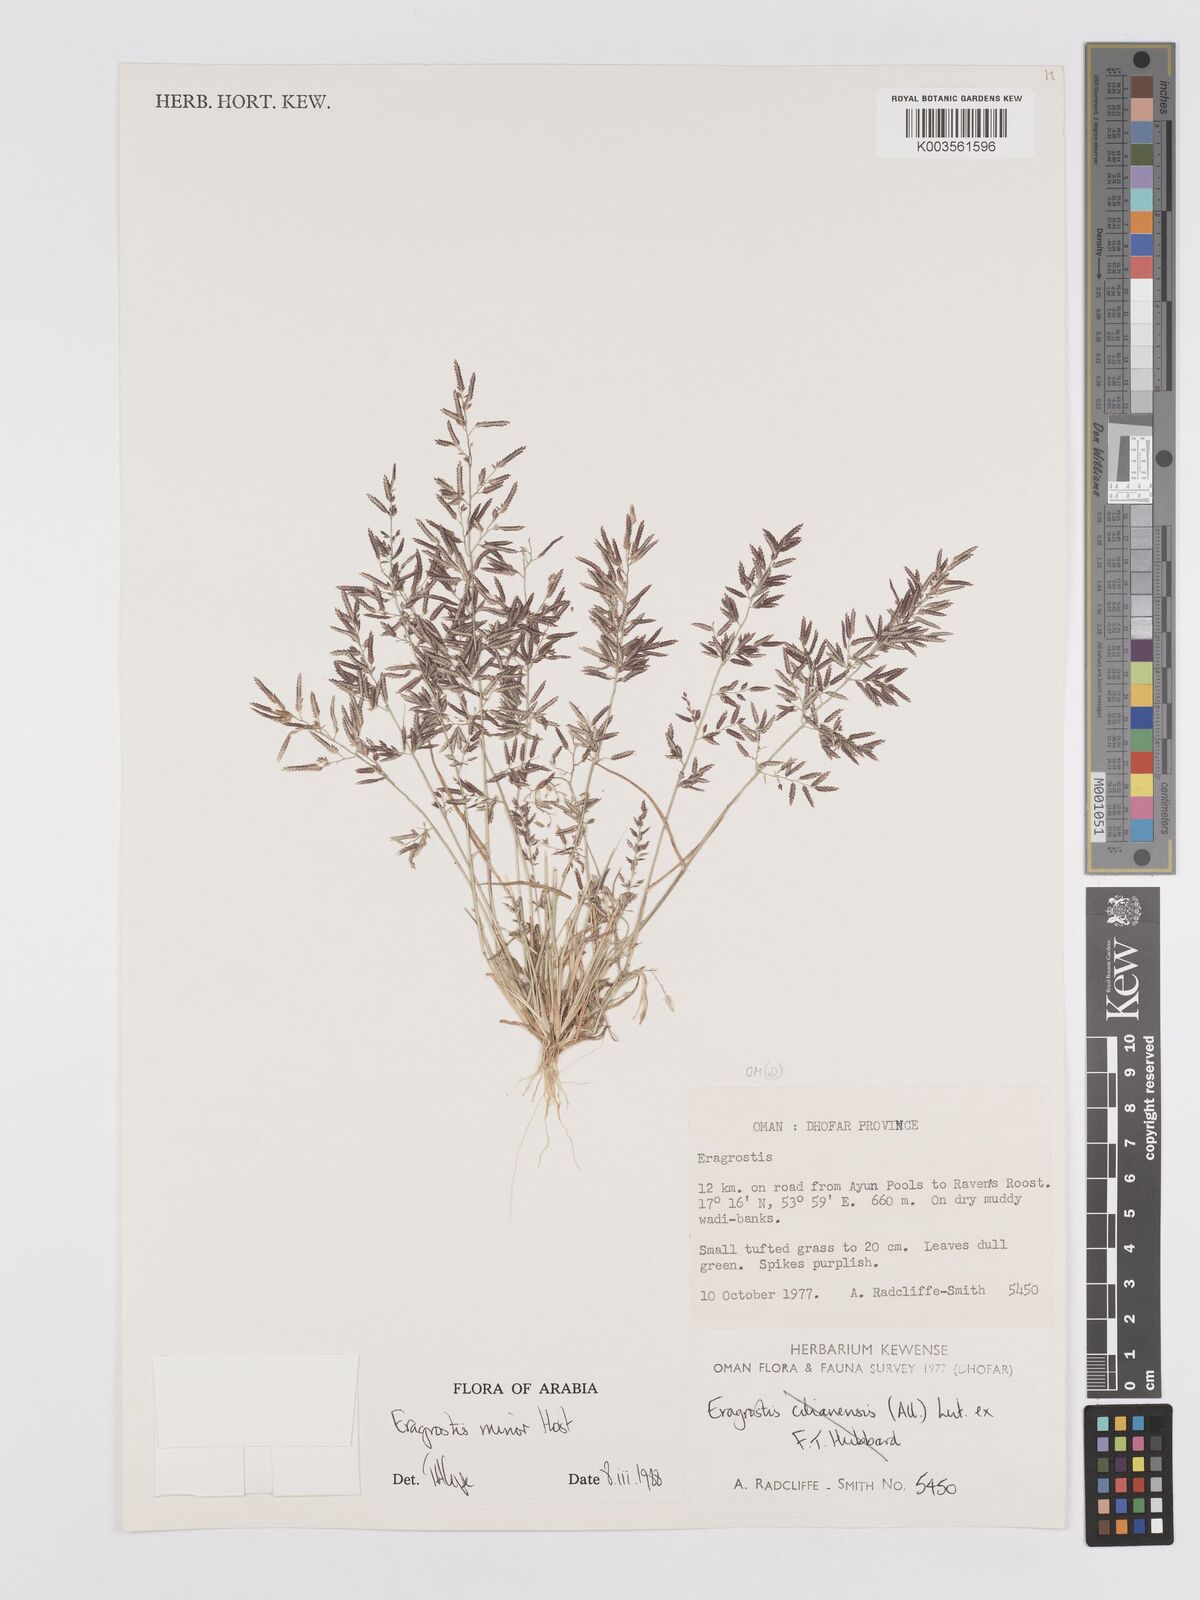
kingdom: Plantae
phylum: Tracheophyta
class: Liliopsida
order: Poales
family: Poaceae
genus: Eragrostis
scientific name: Eragrostis minor
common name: Small love-grass
